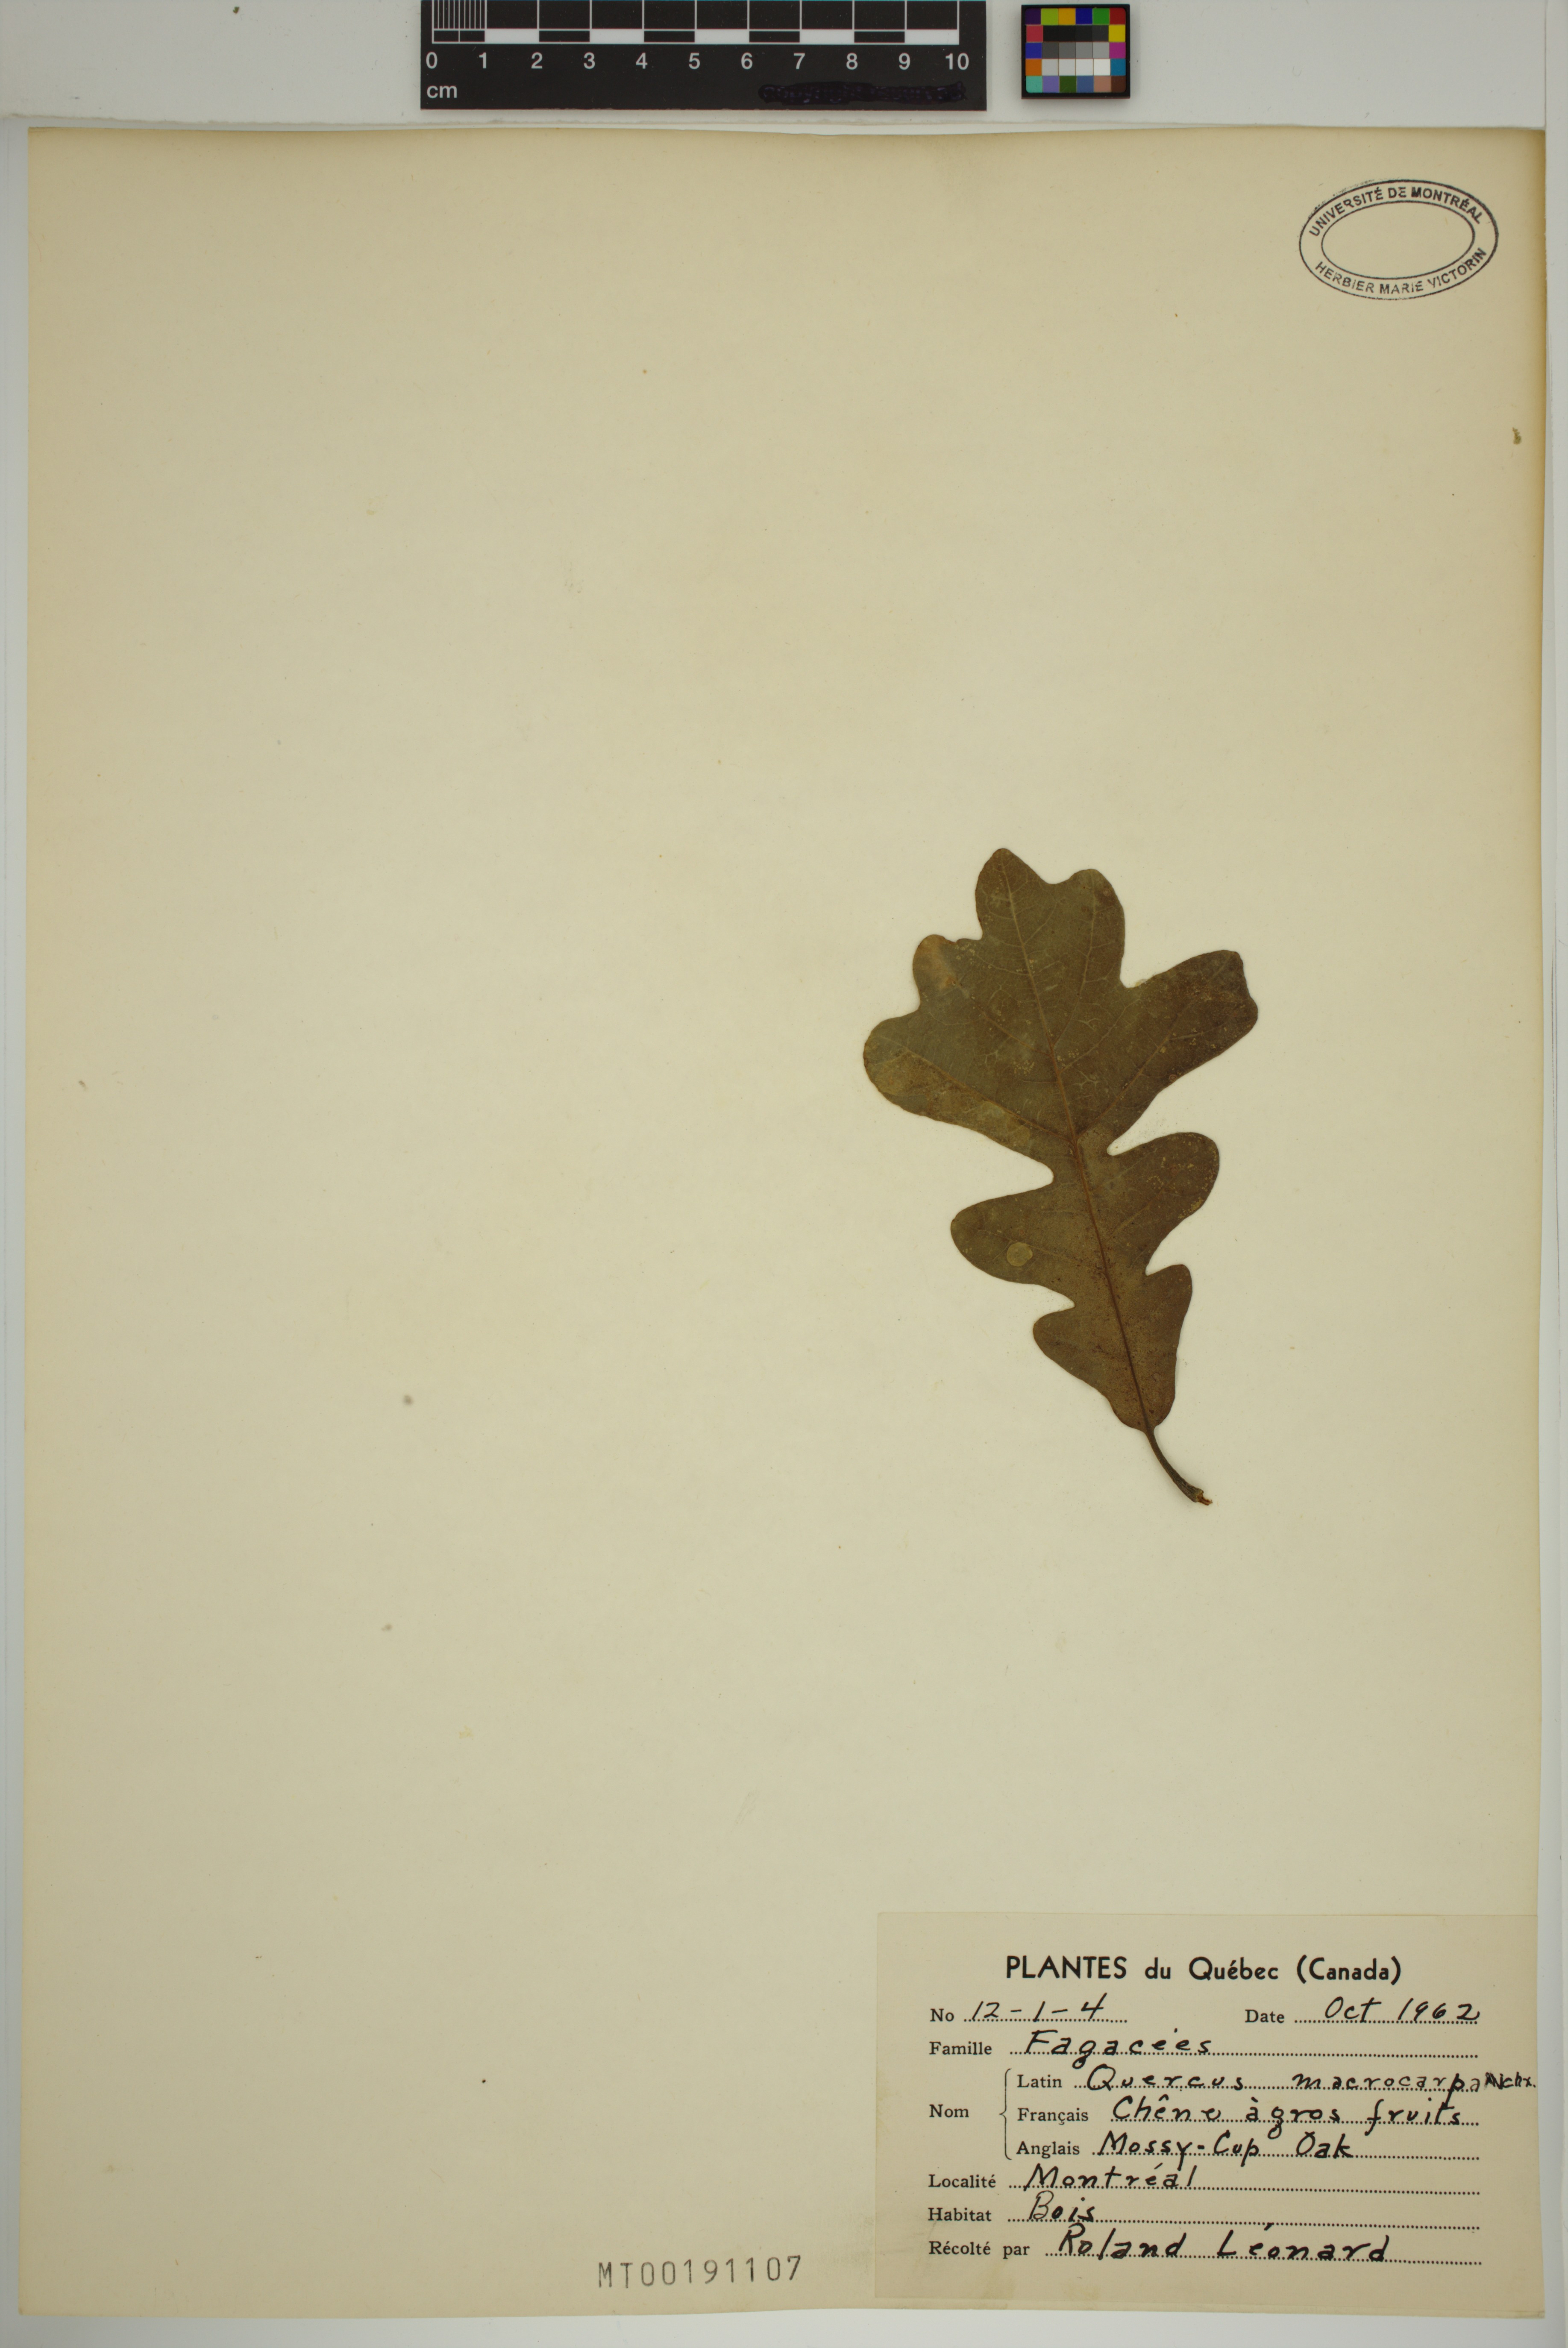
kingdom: Plantae
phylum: Tracheophyta
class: Magnoliopsida
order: Fagales
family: Fagaceae
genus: Quercus
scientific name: Quercus macrocarpa
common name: Bur oak
